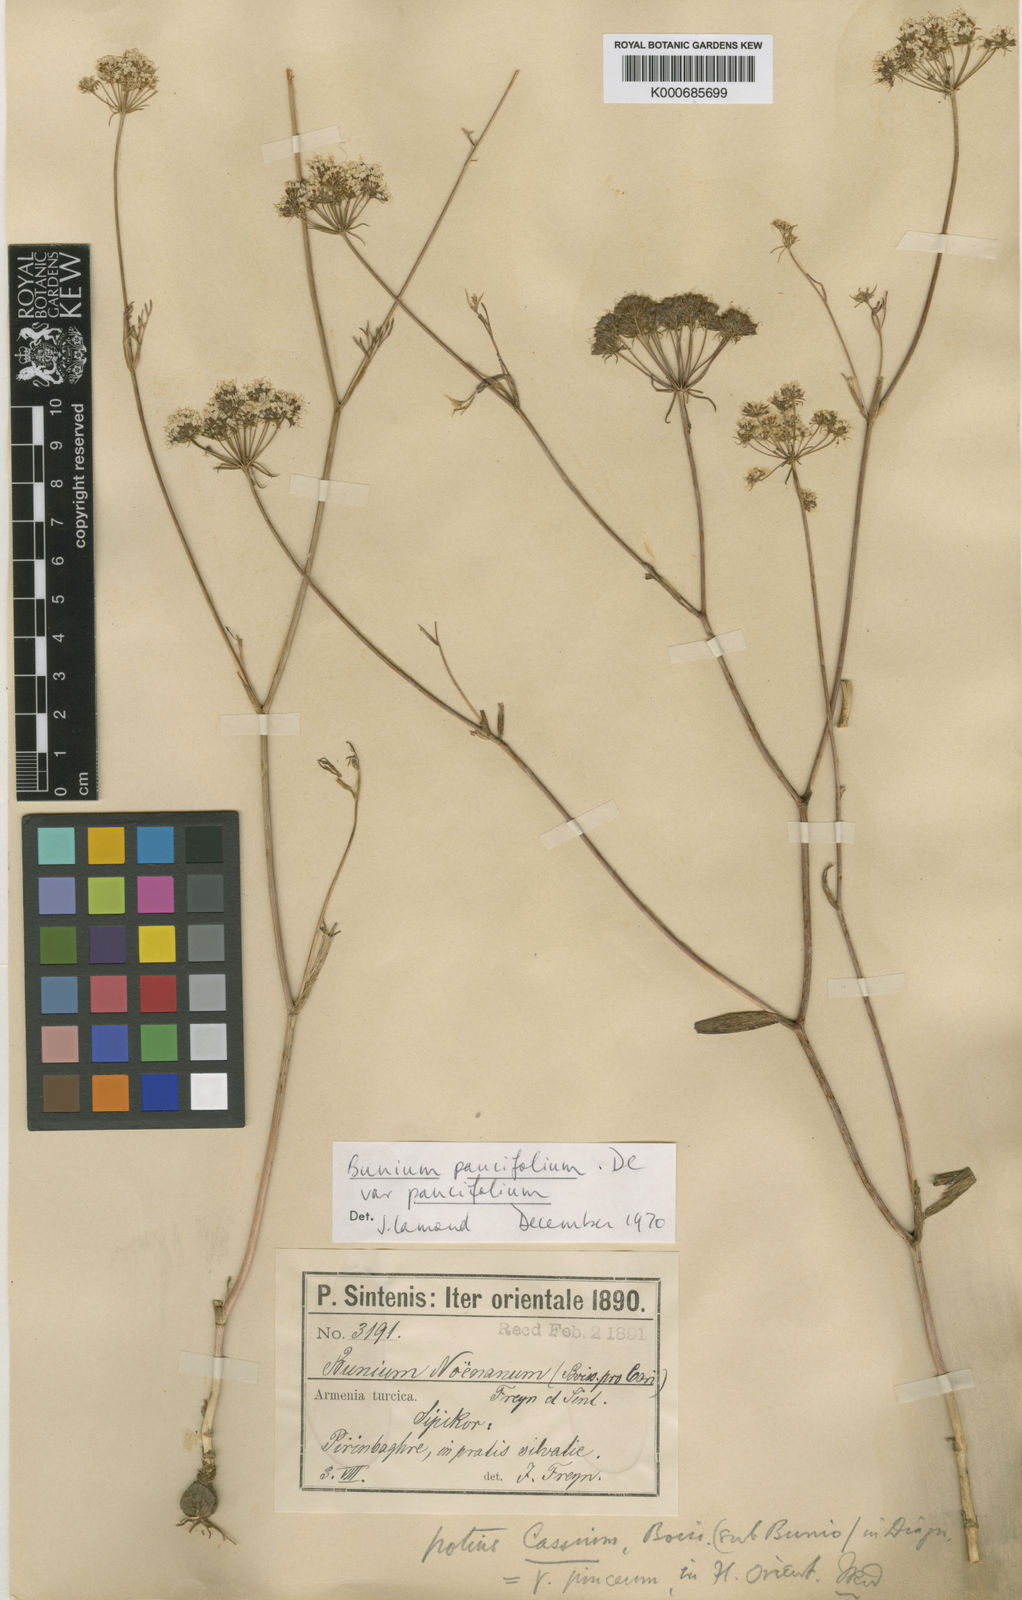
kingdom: Plantae
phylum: Tracheophyta
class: Magnoliopsida
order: Apiales
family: Apiaceae
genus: Bunium
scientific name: Bunium paucifolium
